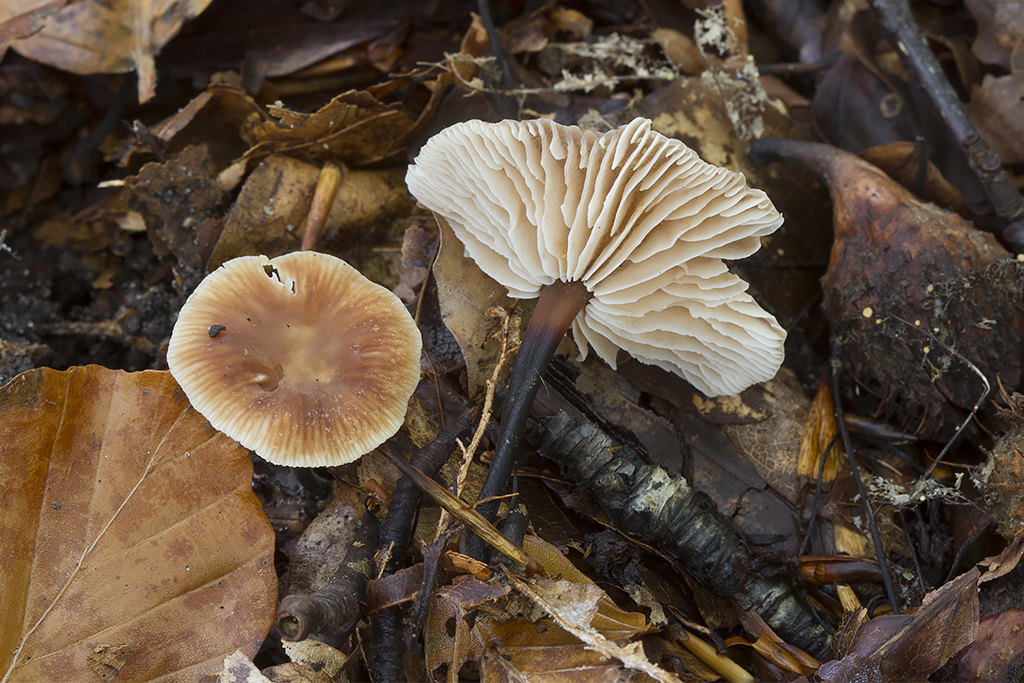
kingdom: Fungi
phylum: Basidiomycota
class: Agaricomycetes
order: Agaricales
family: Omphalotaceae
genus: Gymnopus
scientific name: Gymnopus brassicolens
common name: kål-fladhat
